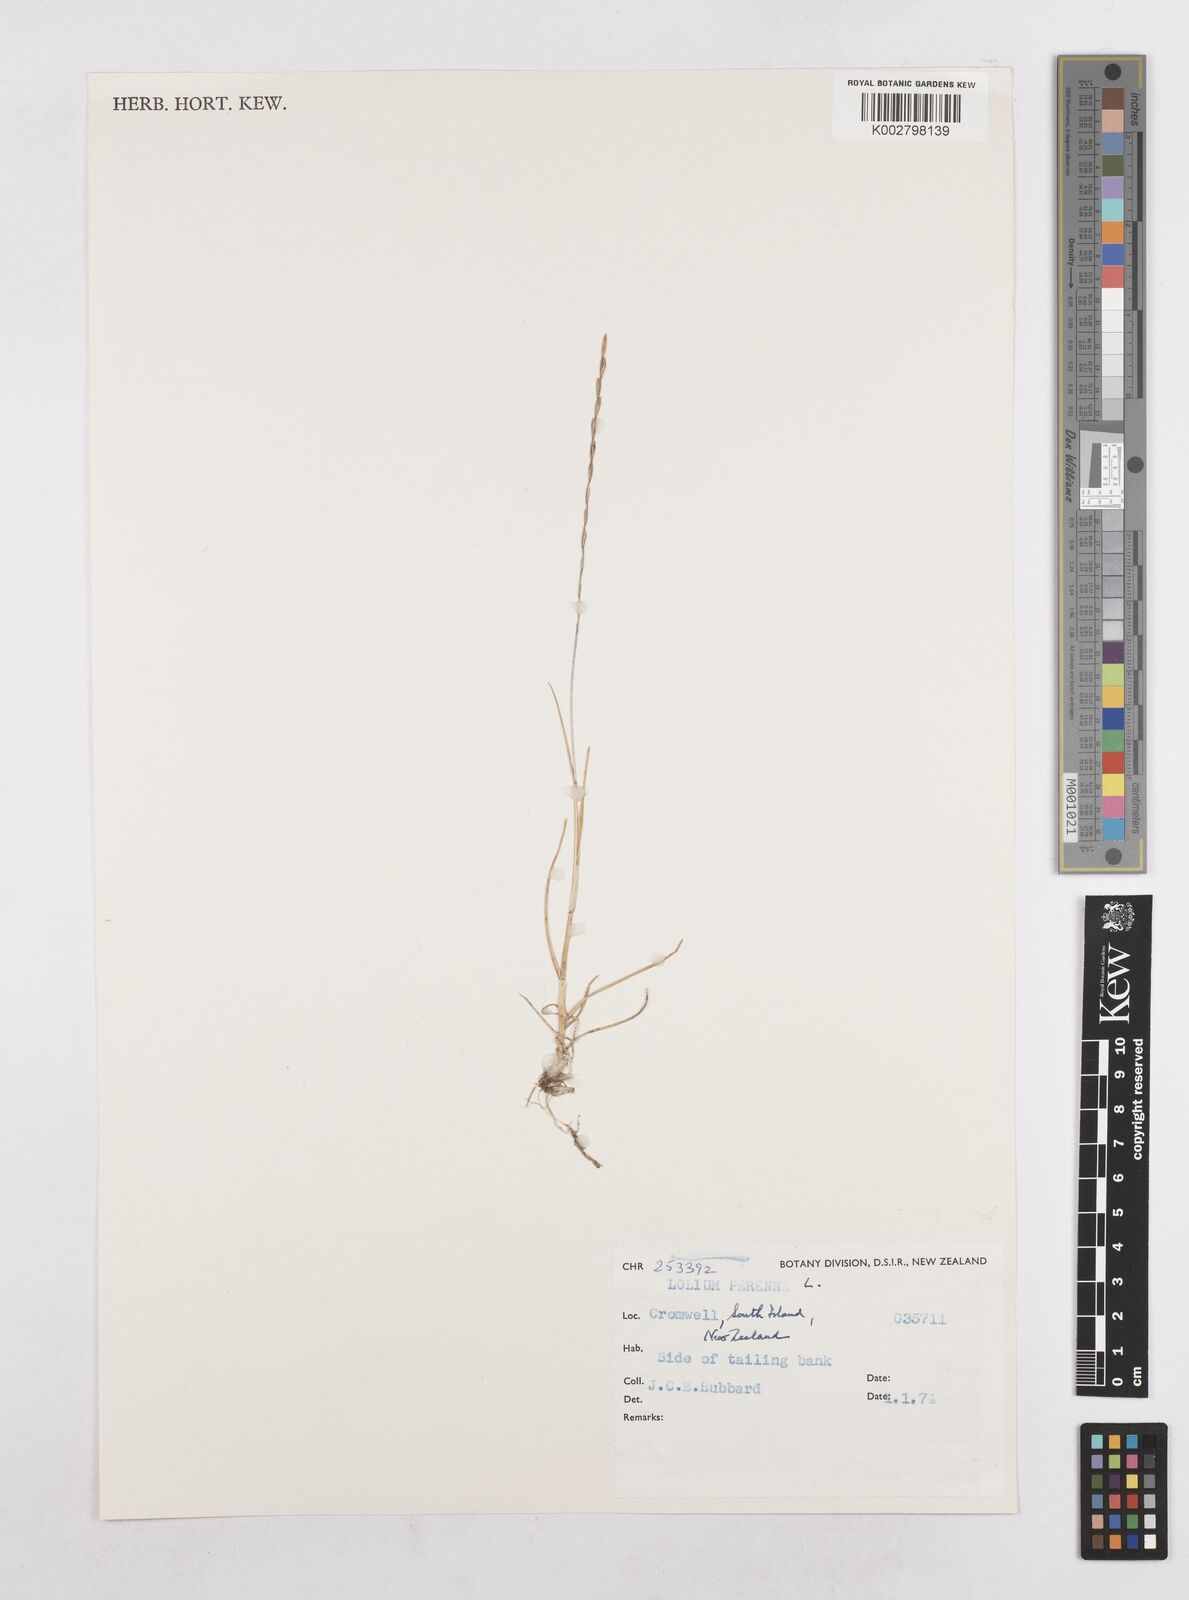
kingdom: Plantae
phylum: Tracheophyta
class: Liliopsida
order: Poales
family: Poaceae
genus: Lolium
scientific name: Lolium perenne
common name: Perennial ryegrass
